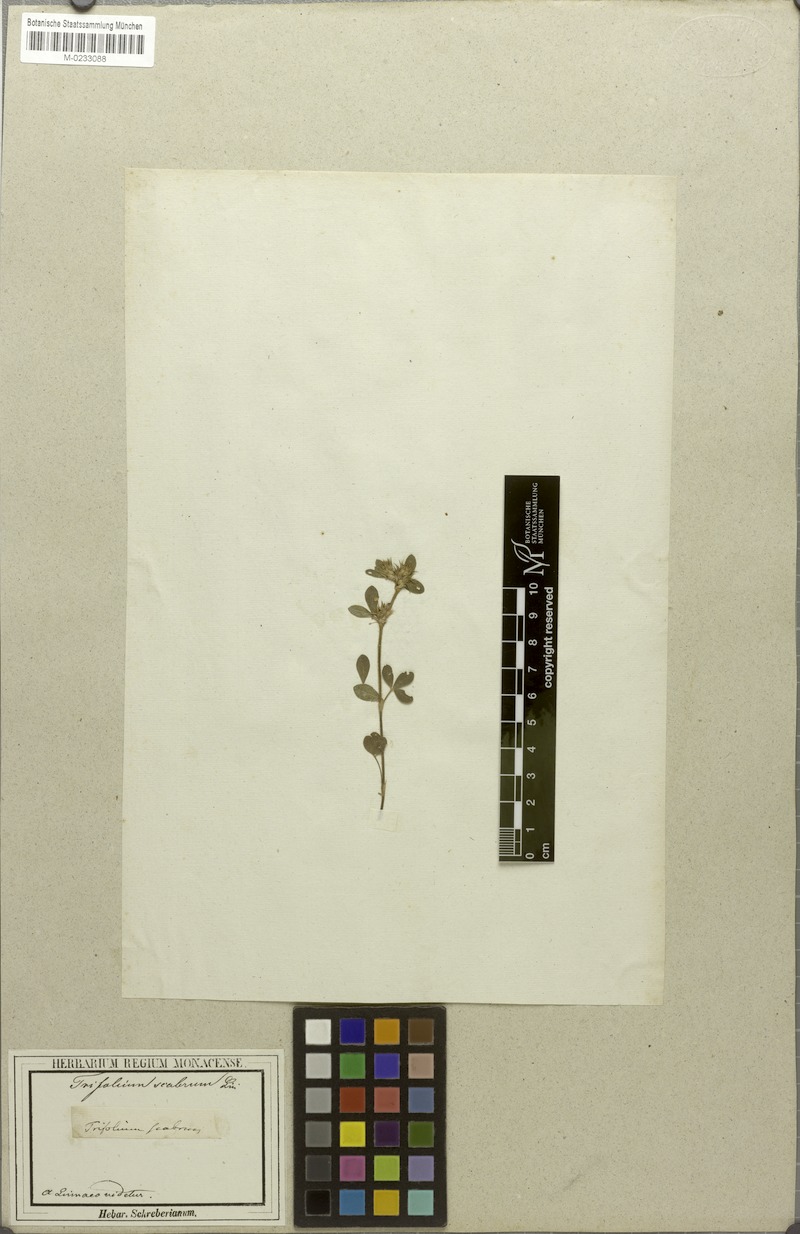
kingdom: Plantae
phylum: Tracheophyta
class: Magnoliopsida
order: Fabales
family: Fabaceae
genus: Trifolium
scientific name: Trifolium scabrum
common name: Rough clover
